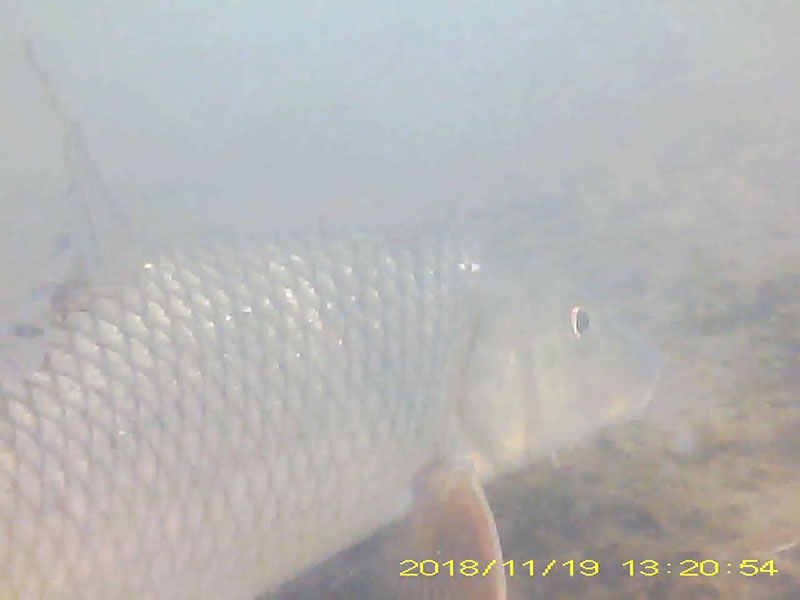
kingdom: Animalia
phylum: Chordata
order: Cypriniformes
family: Cyprinidae
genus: Hemibarbus
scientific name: Hemibarbus labeo
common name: ニゴイ
